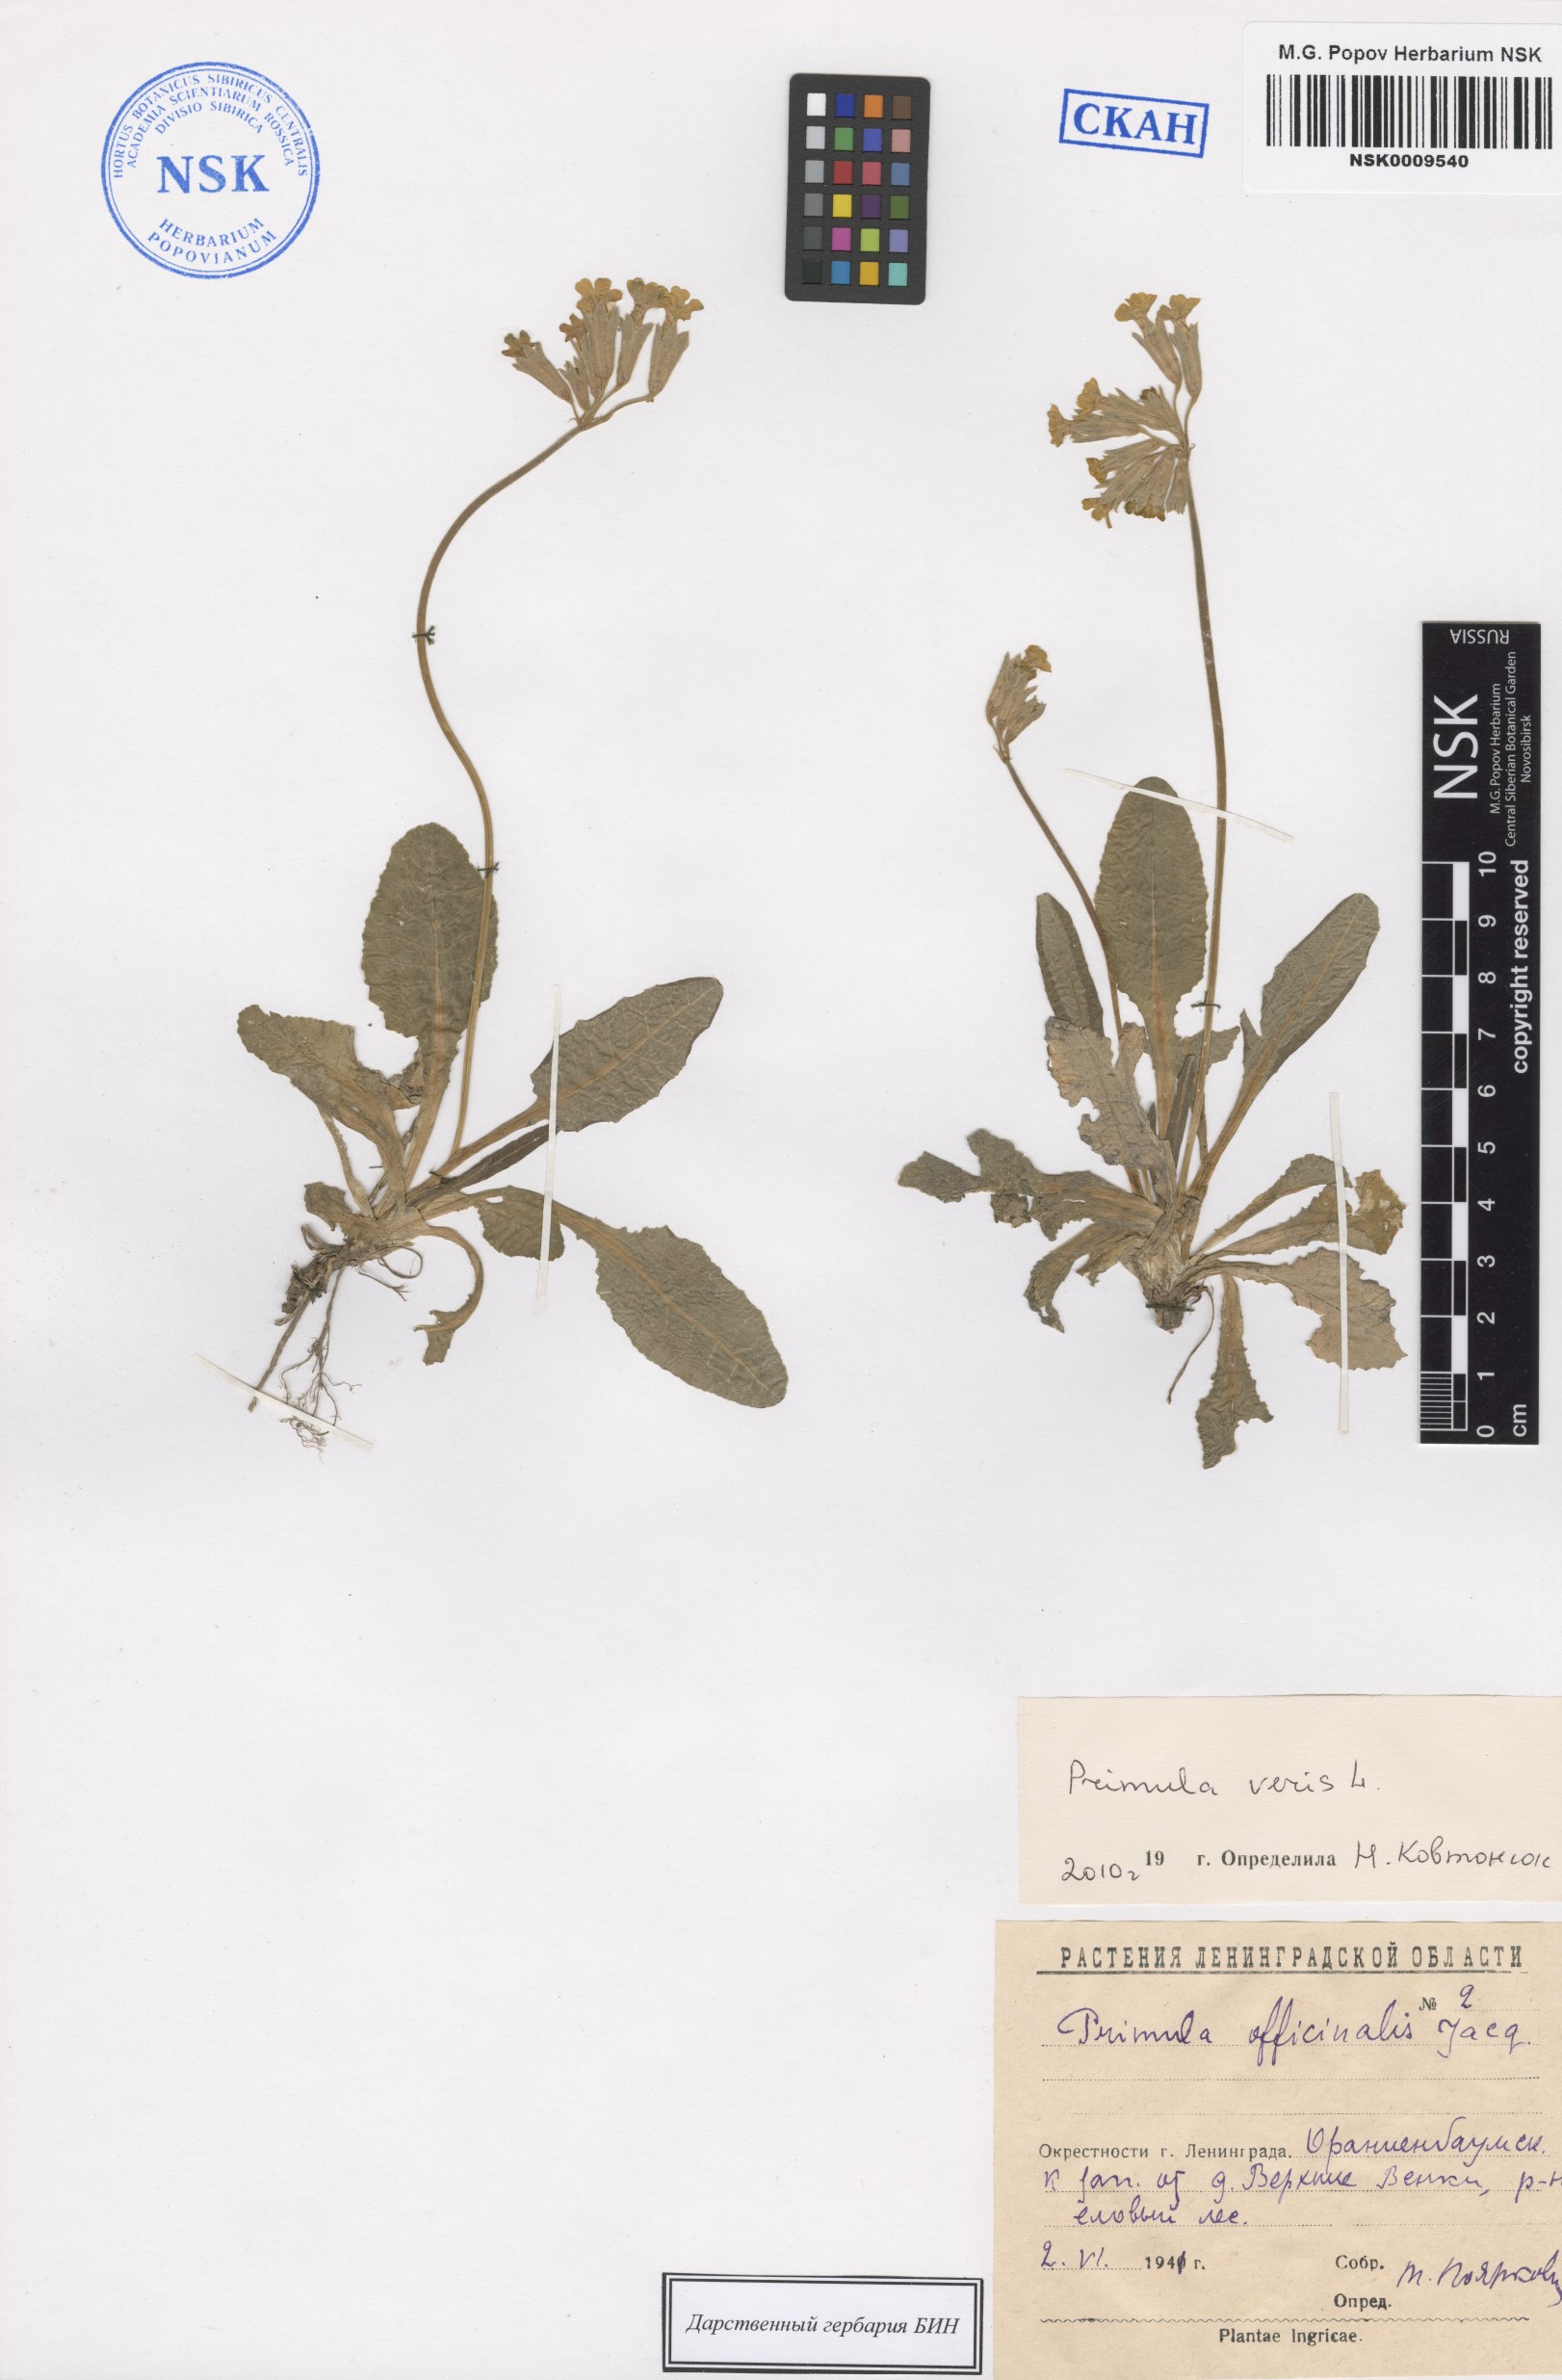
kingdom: Plantae
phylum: Tracheophyta
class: Magnoliopsida
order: Ericales
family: Primulaceae
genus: Primula
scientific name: Primula veris
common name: Cowslip
